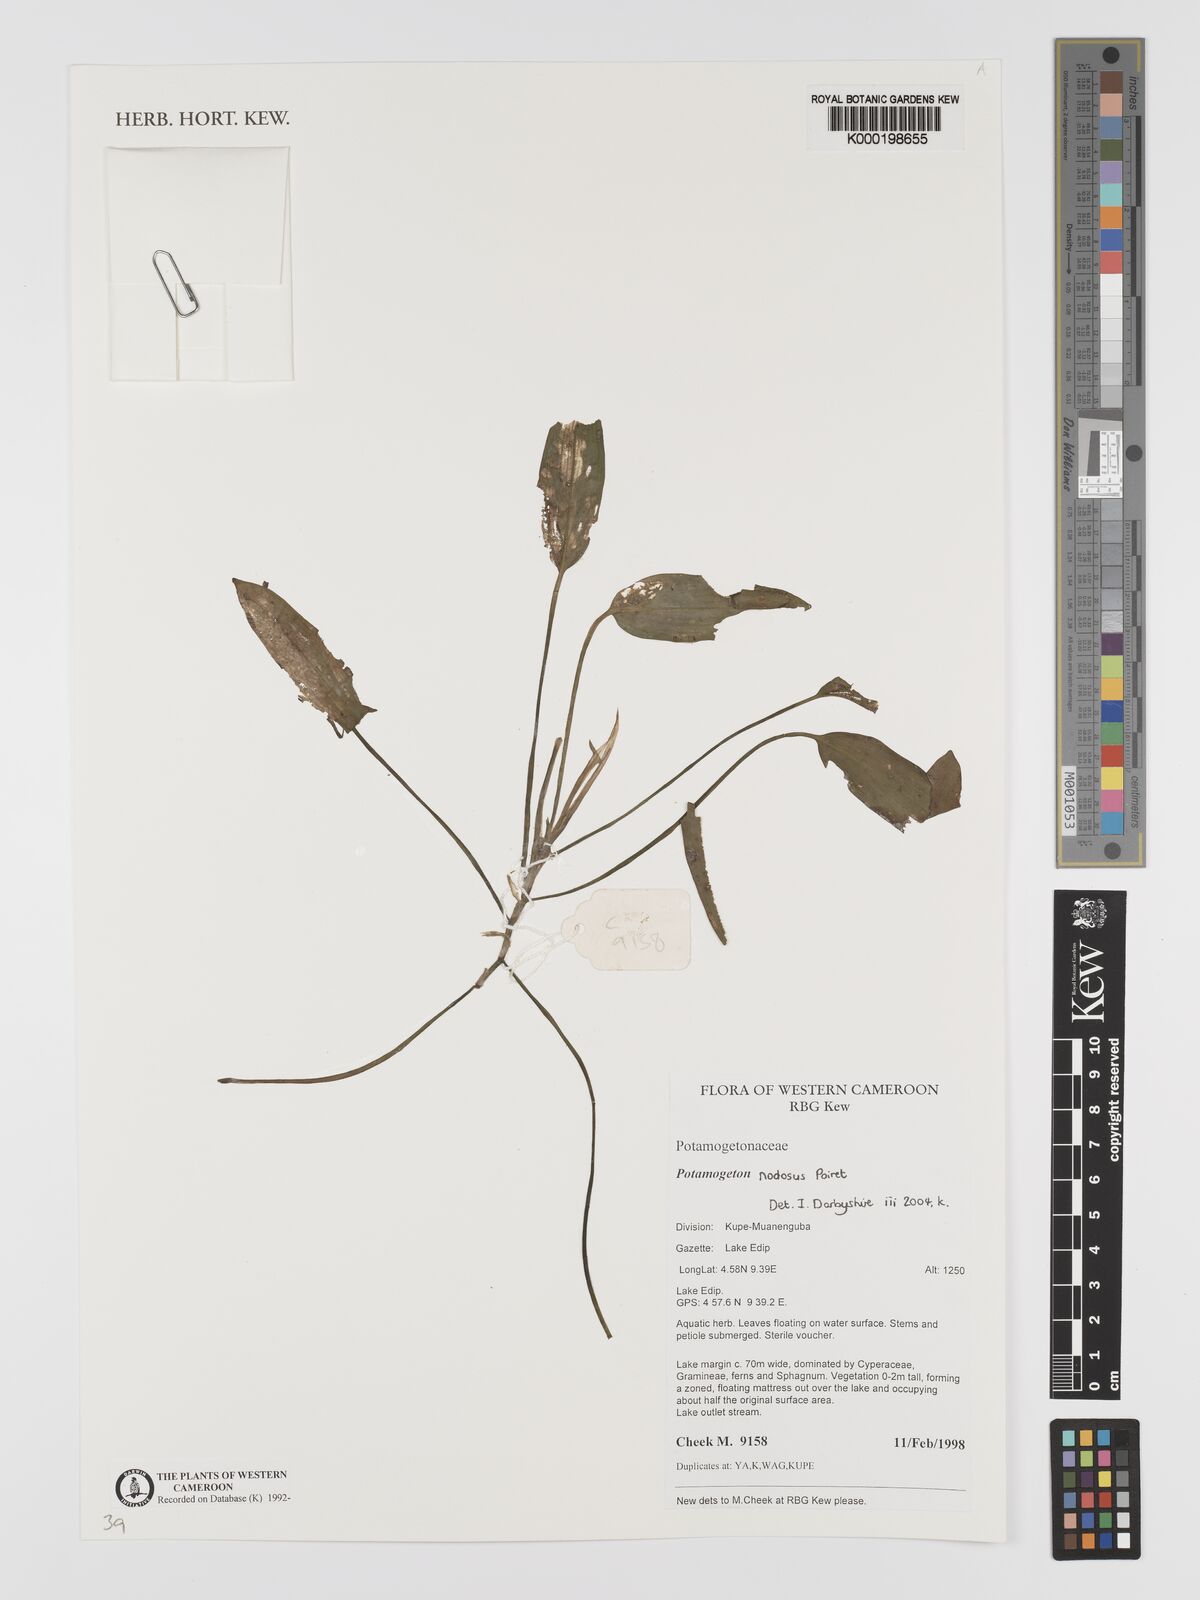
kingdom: Plantae
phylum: Tracheophyta
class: Liliopsida
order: Alismatales
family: Potamogetonaceae
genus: Potamogeton
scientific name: Potamogeton nodosus
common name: Loddon pondweed
